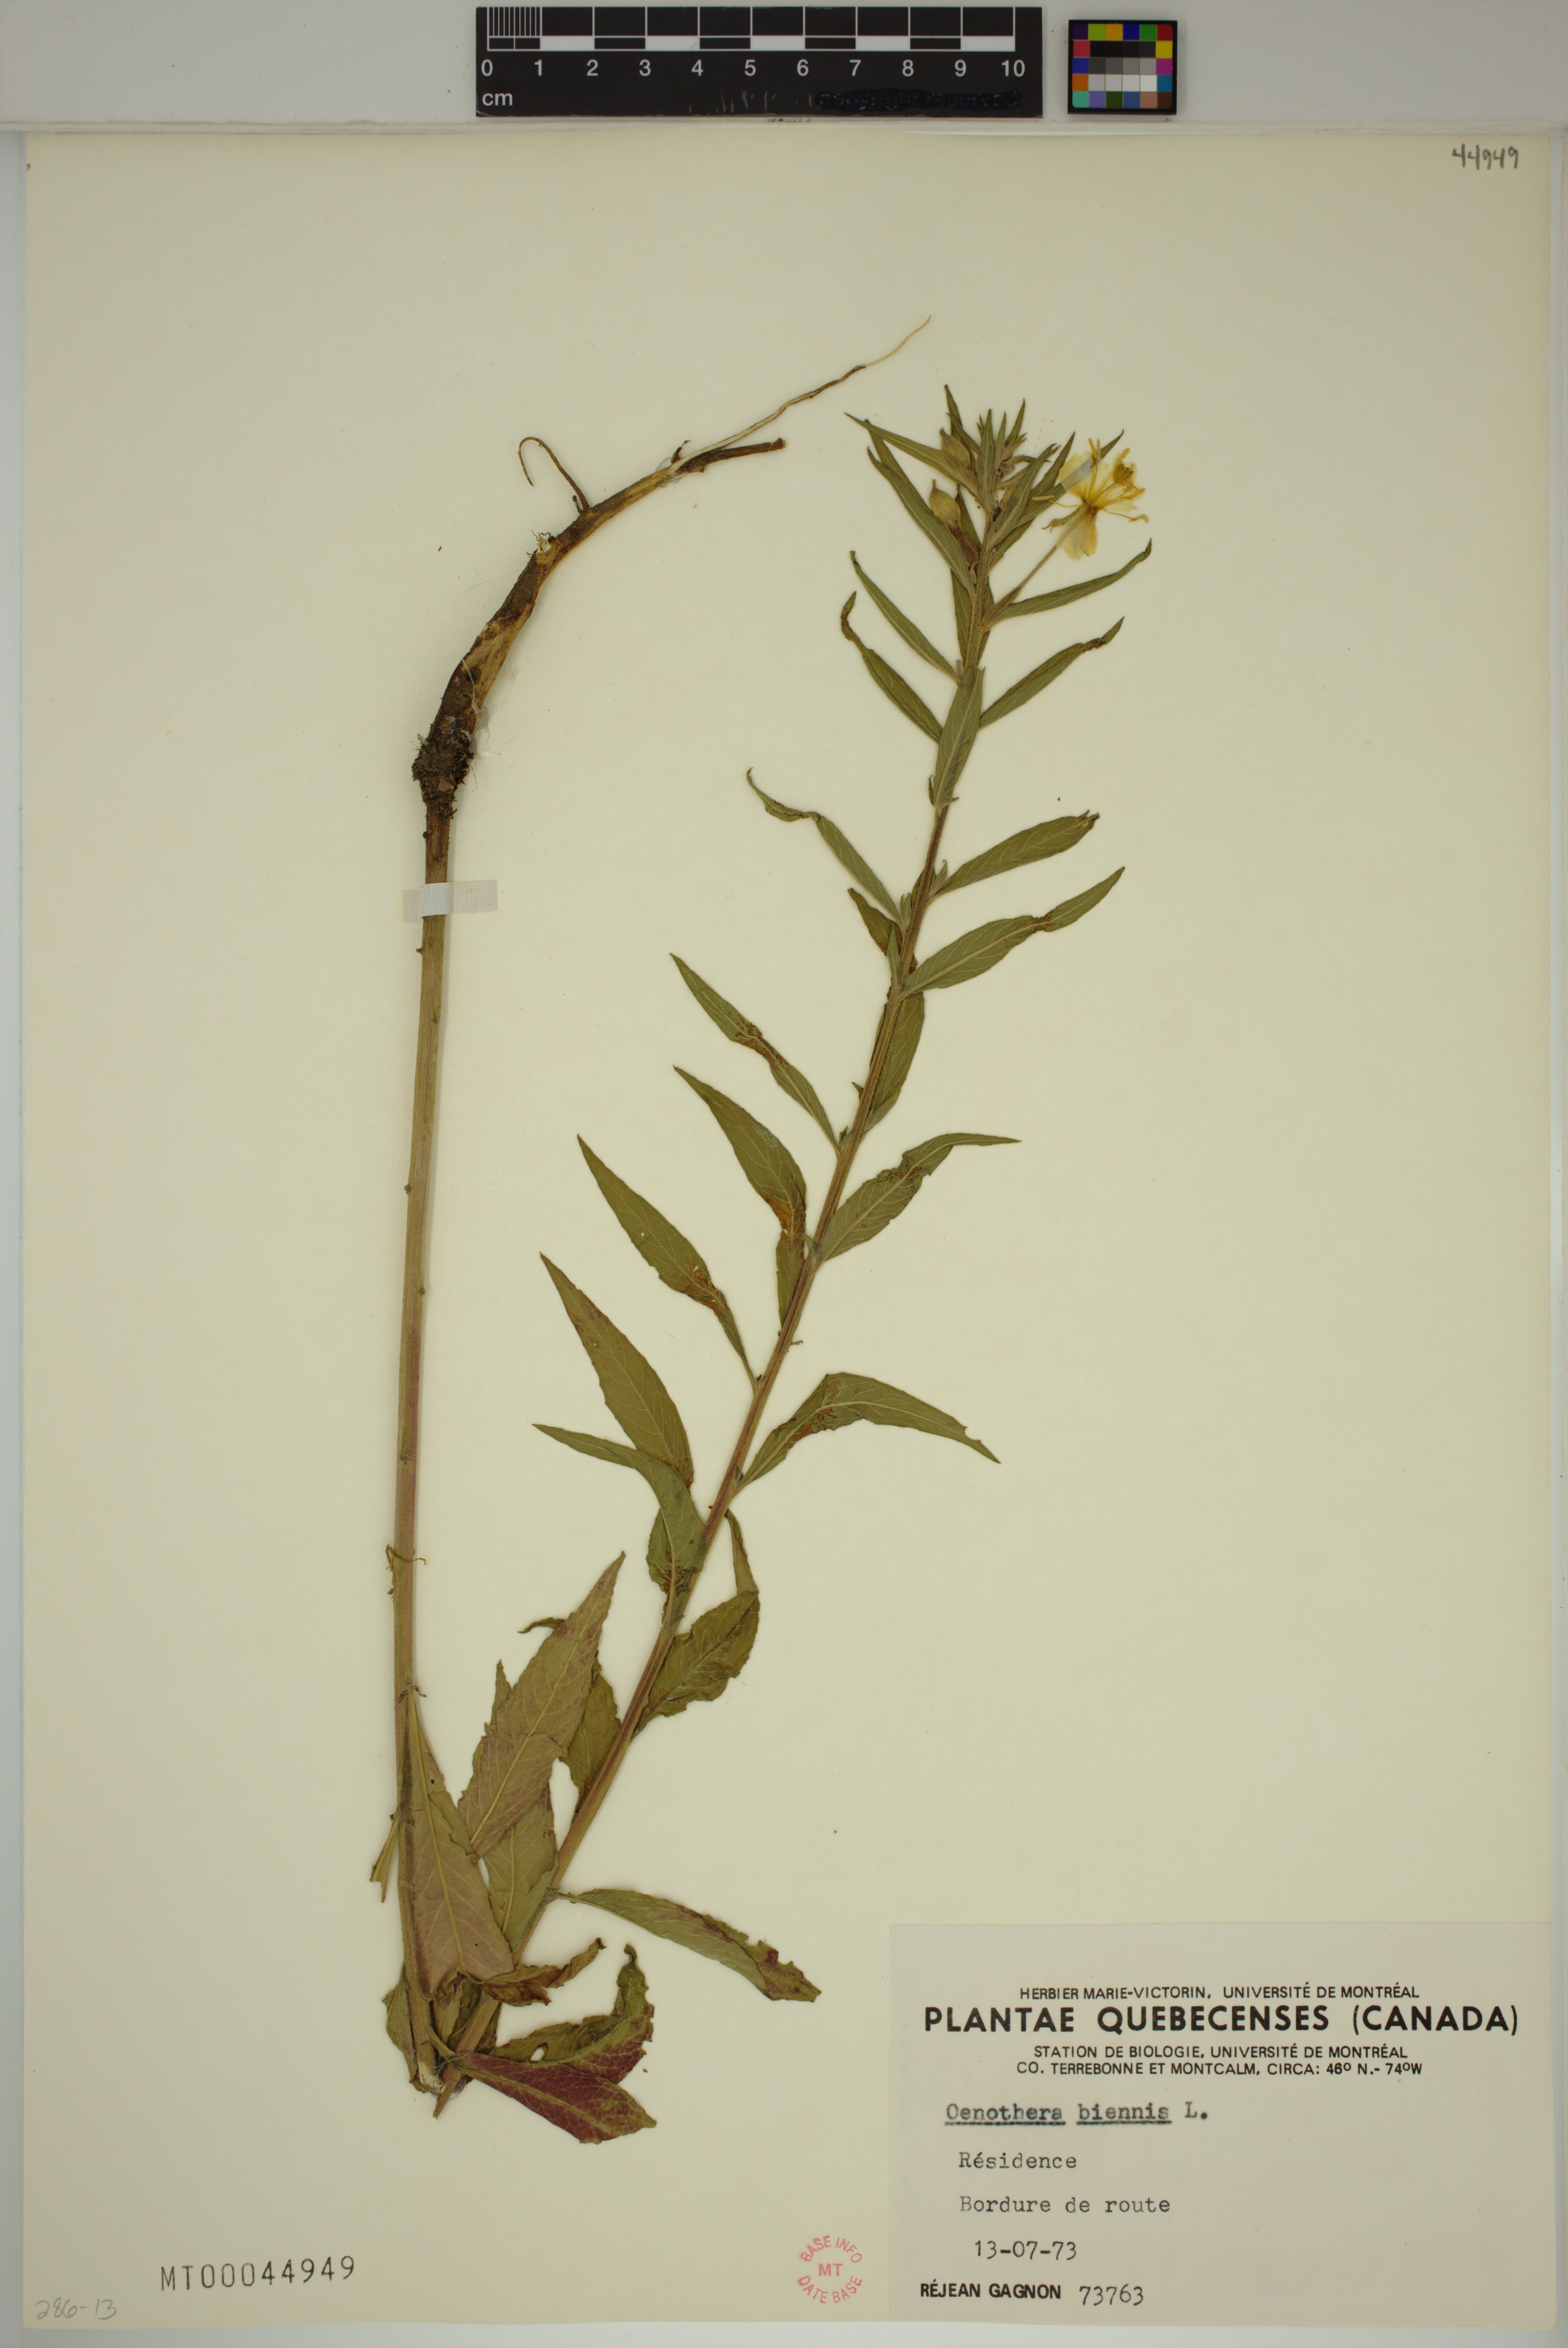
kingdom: Plantae
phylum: Tracheophyta
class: Magnoliopsida
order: Myrtales
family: Onagraceae
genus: Oenothera
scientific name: Oenothera biennis
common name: Common evening-primrose
